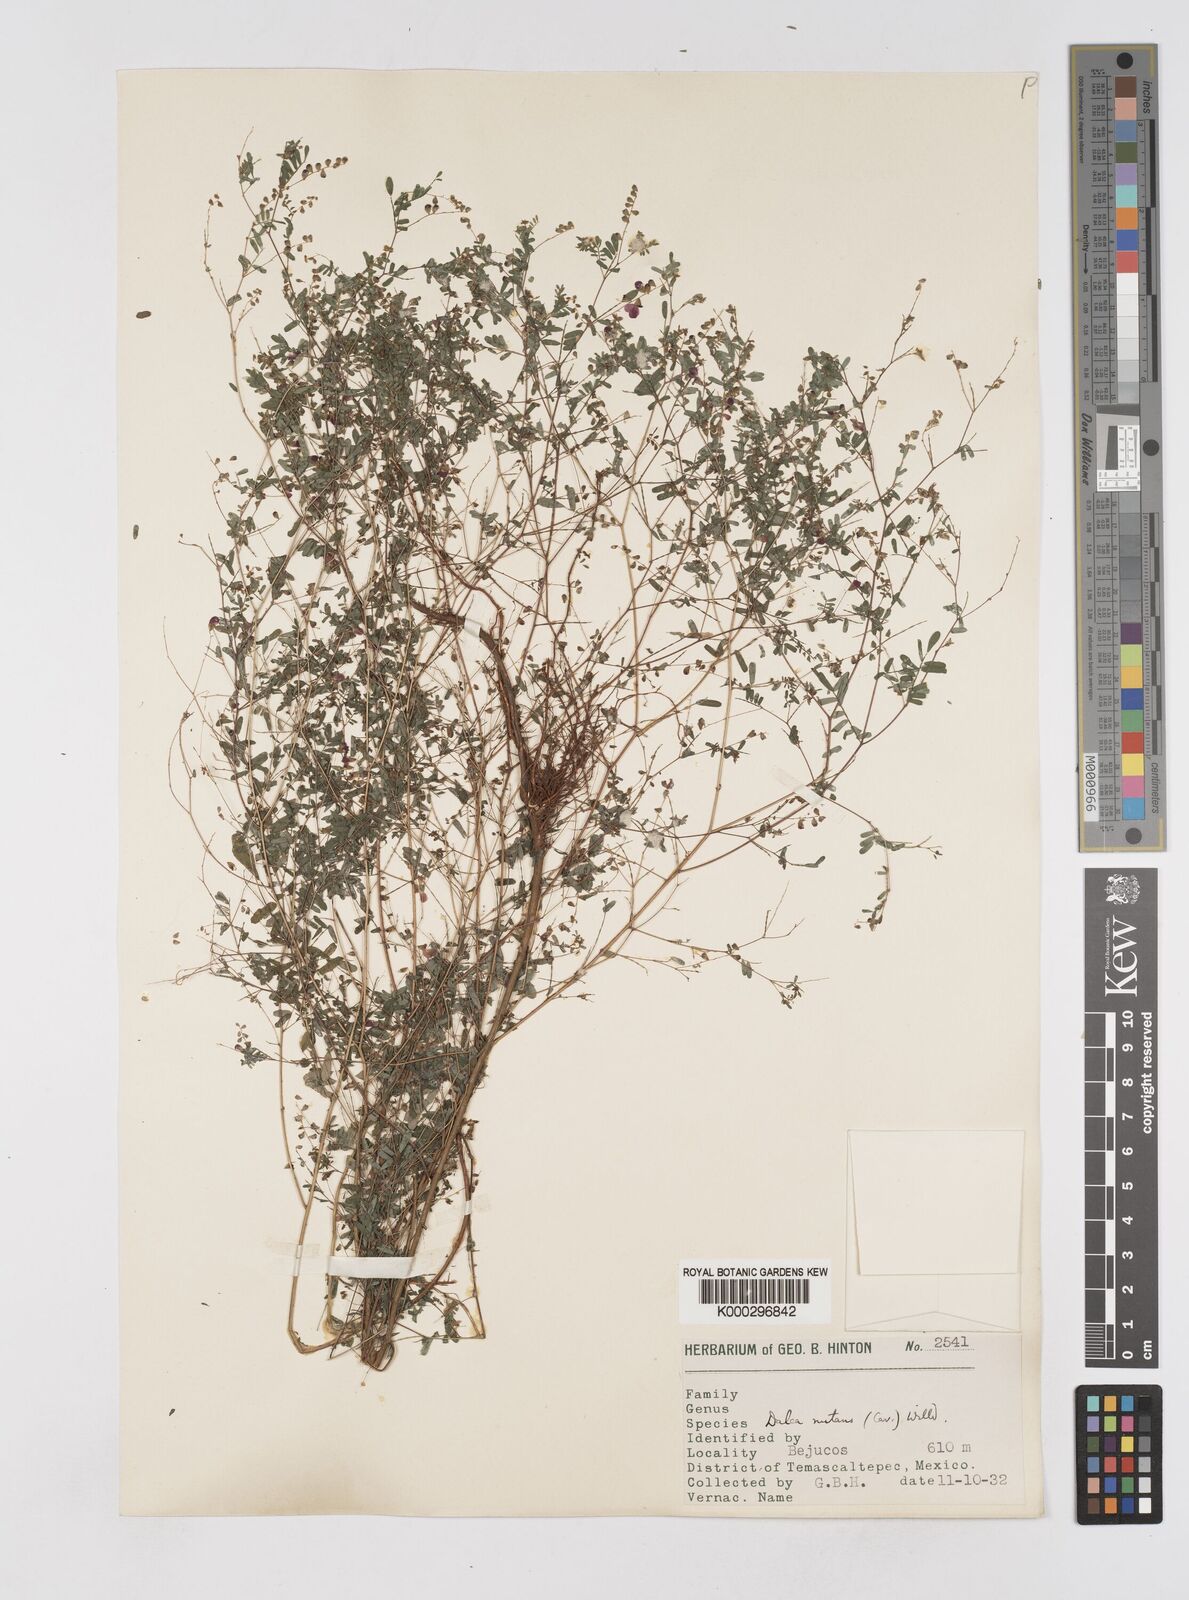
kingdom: Plantae
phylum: Tracheophyta
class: Magnoliopsida
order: Fabales
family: Fabaceae
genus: Marina
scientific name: Marina nutans
